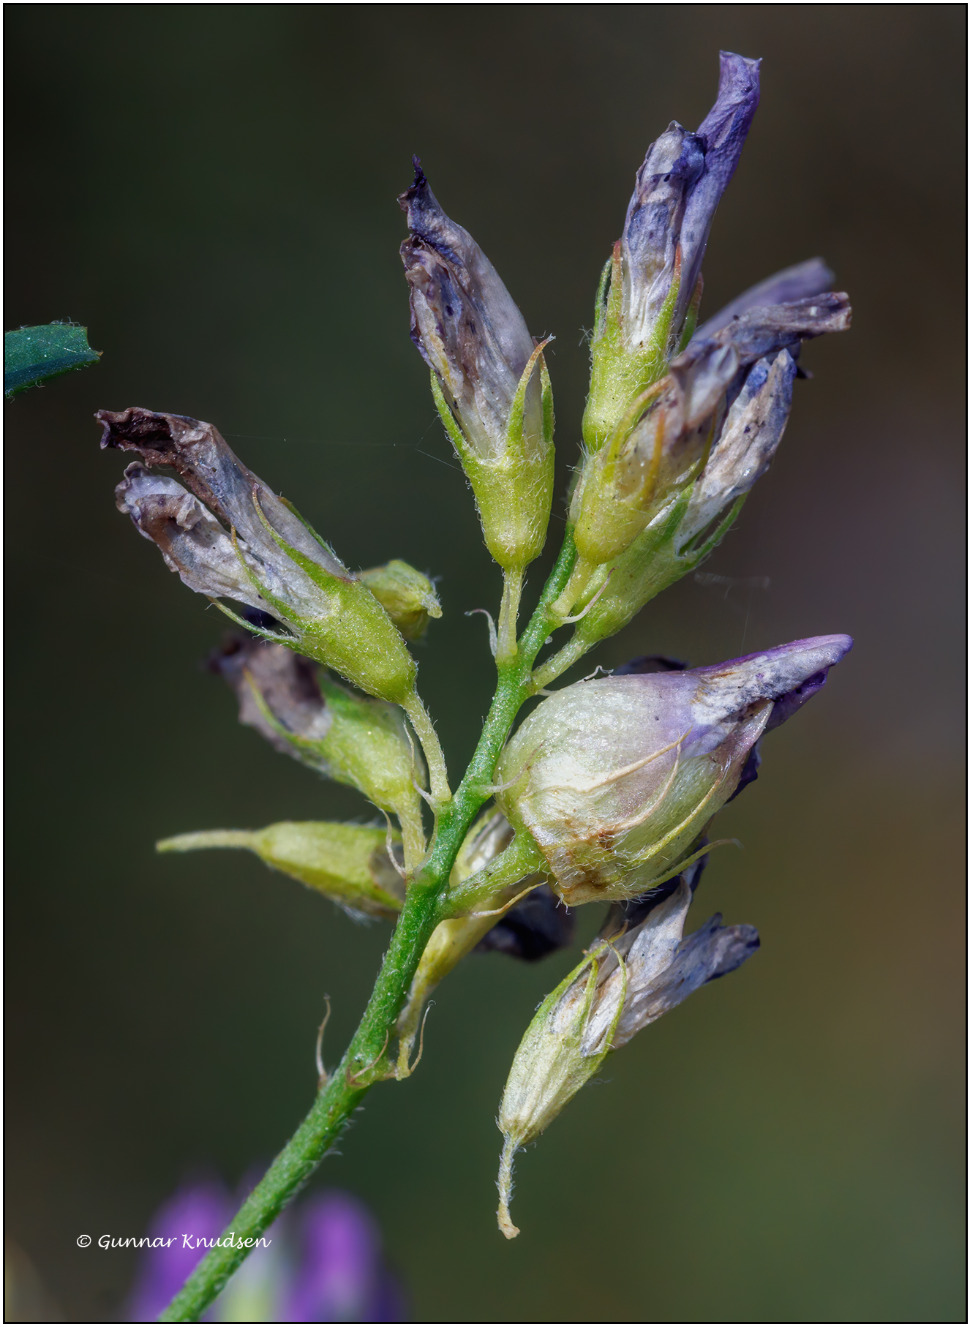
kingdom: Animalia
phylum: Arthropoda
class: Insecta
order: Diptera
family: Cecidomyiidae
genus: Contarinia
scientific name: Contarinia medicaginis
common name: Lucerneblomstgalmyg
